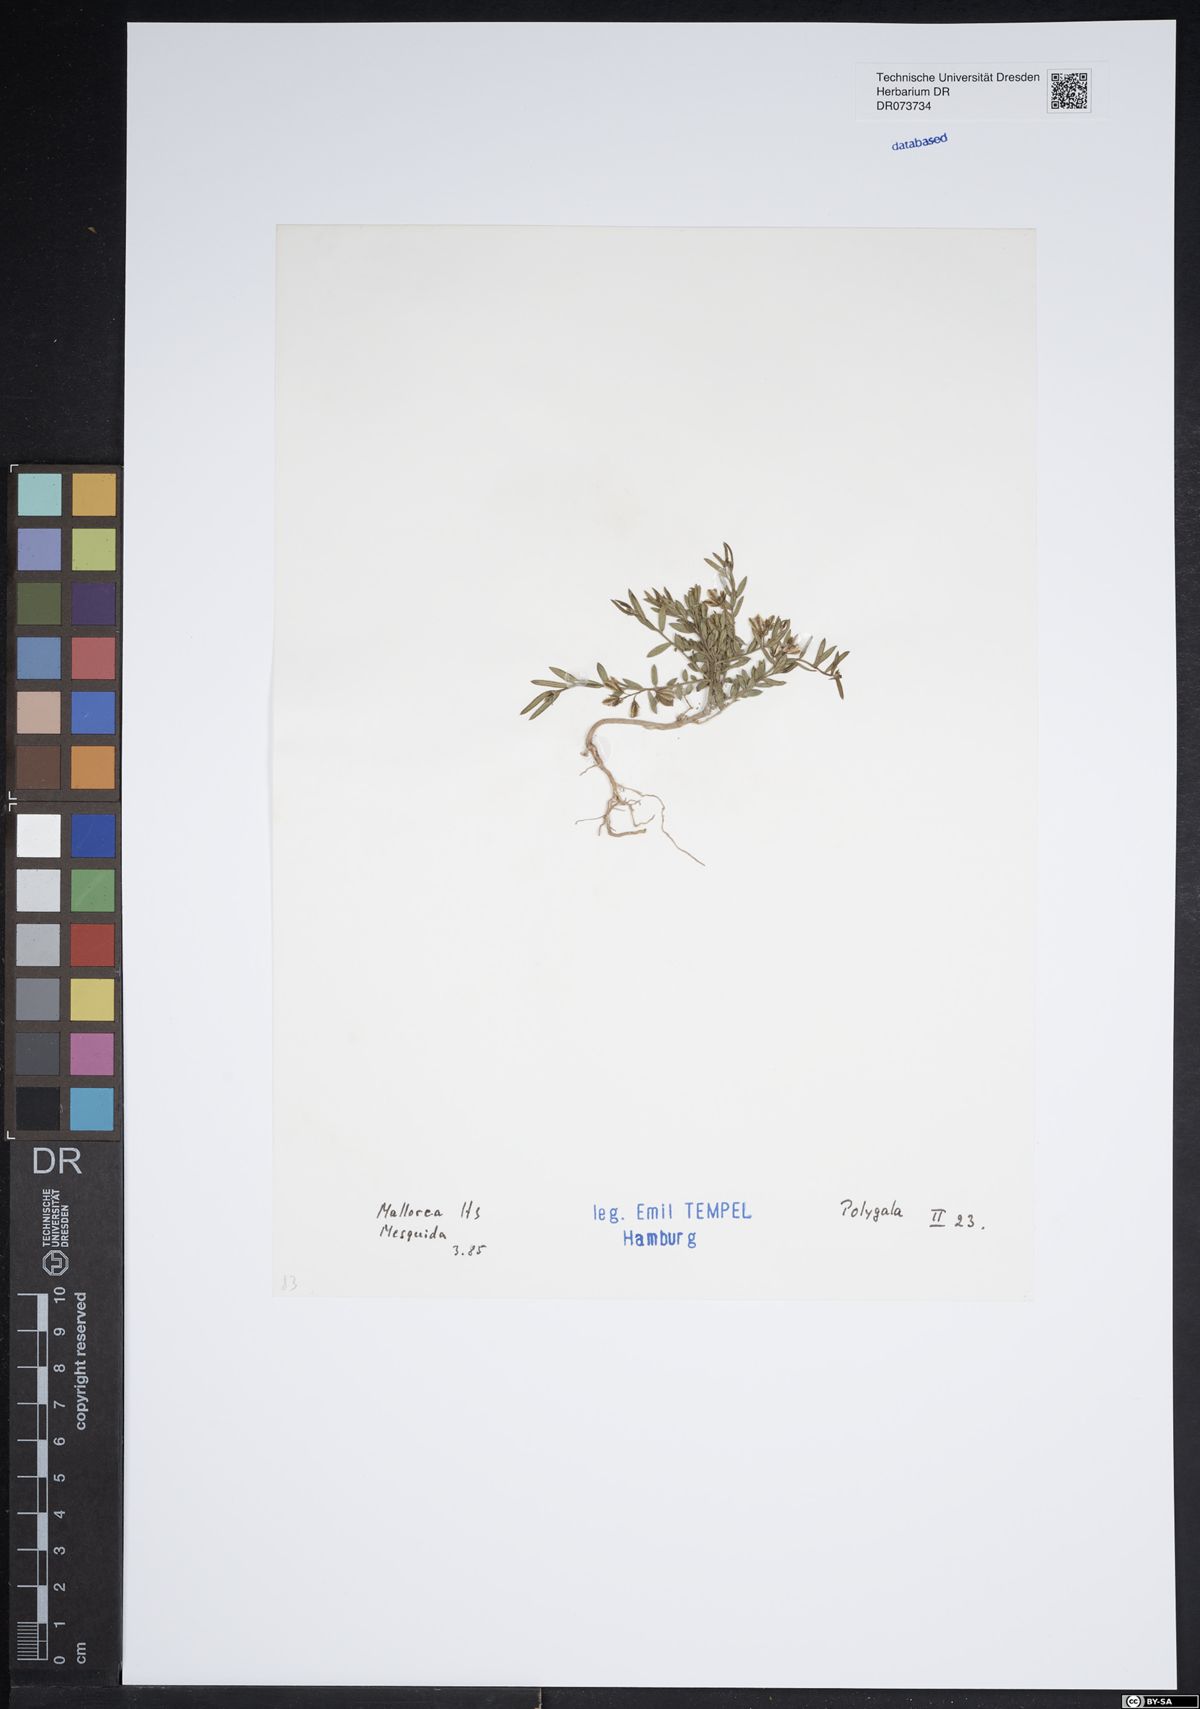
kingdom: Plantae
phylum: Tracheophyta
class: Magnoliopsida
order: Fabales
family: Polygalaceae
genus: Polygala
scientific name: Polygala
